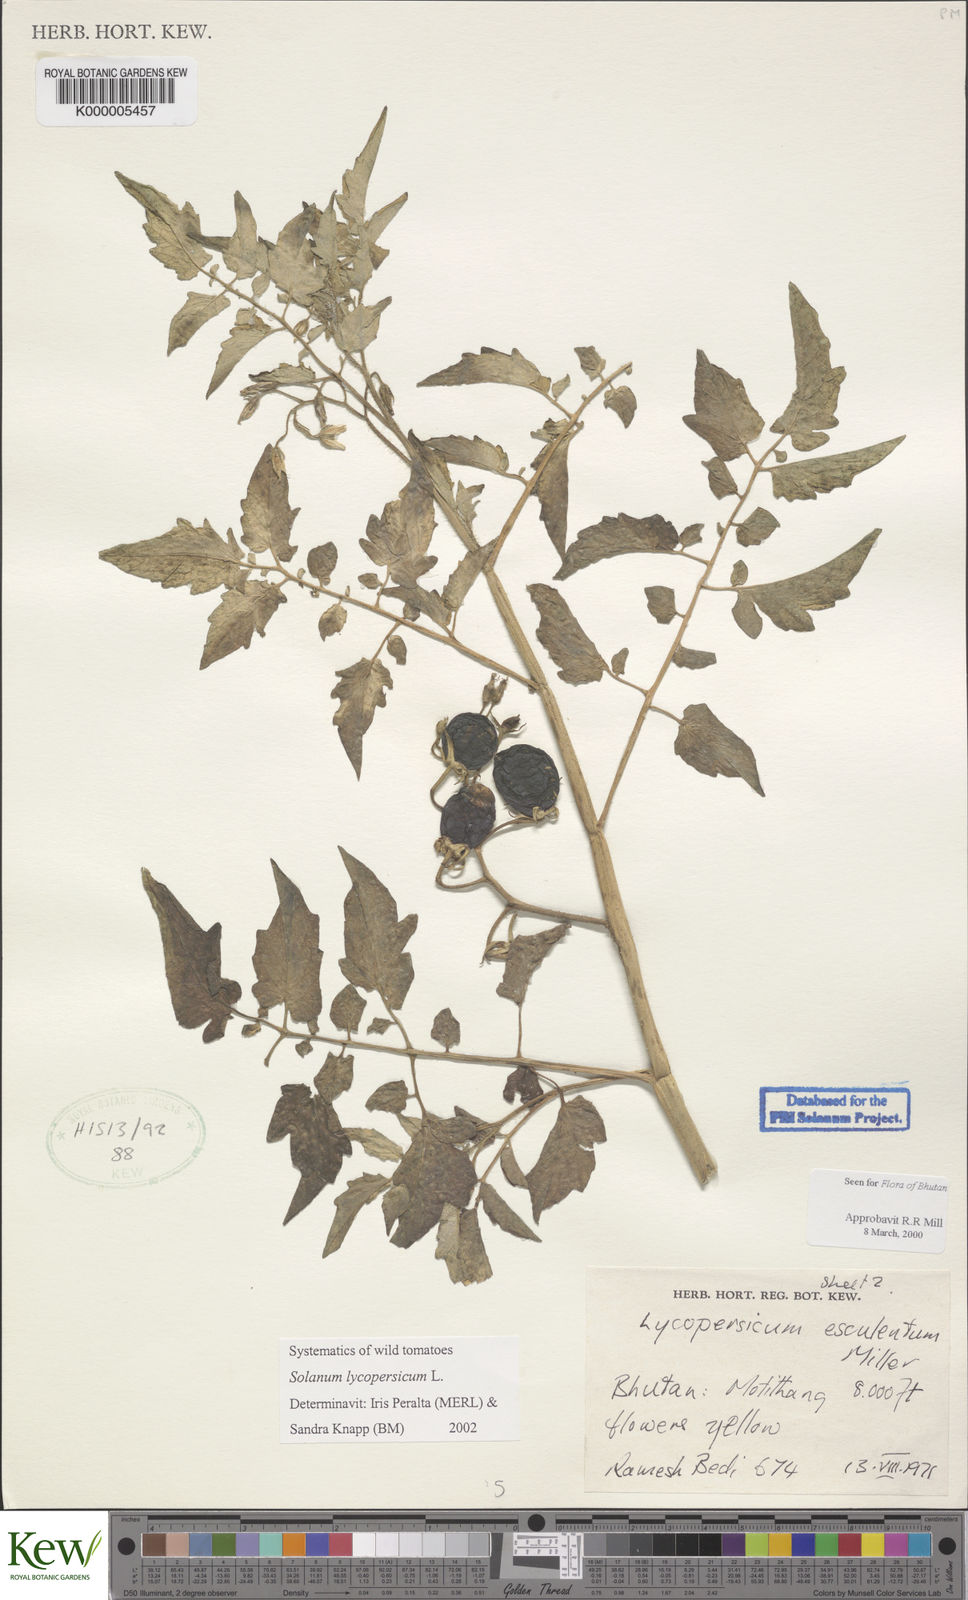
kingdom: Plantae
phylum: Tracheophyta
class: Magnoliopsida
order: Solanales
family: Solanaceae
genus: Solanum
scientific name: Solanum lycopersicum
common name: Garden tomato
